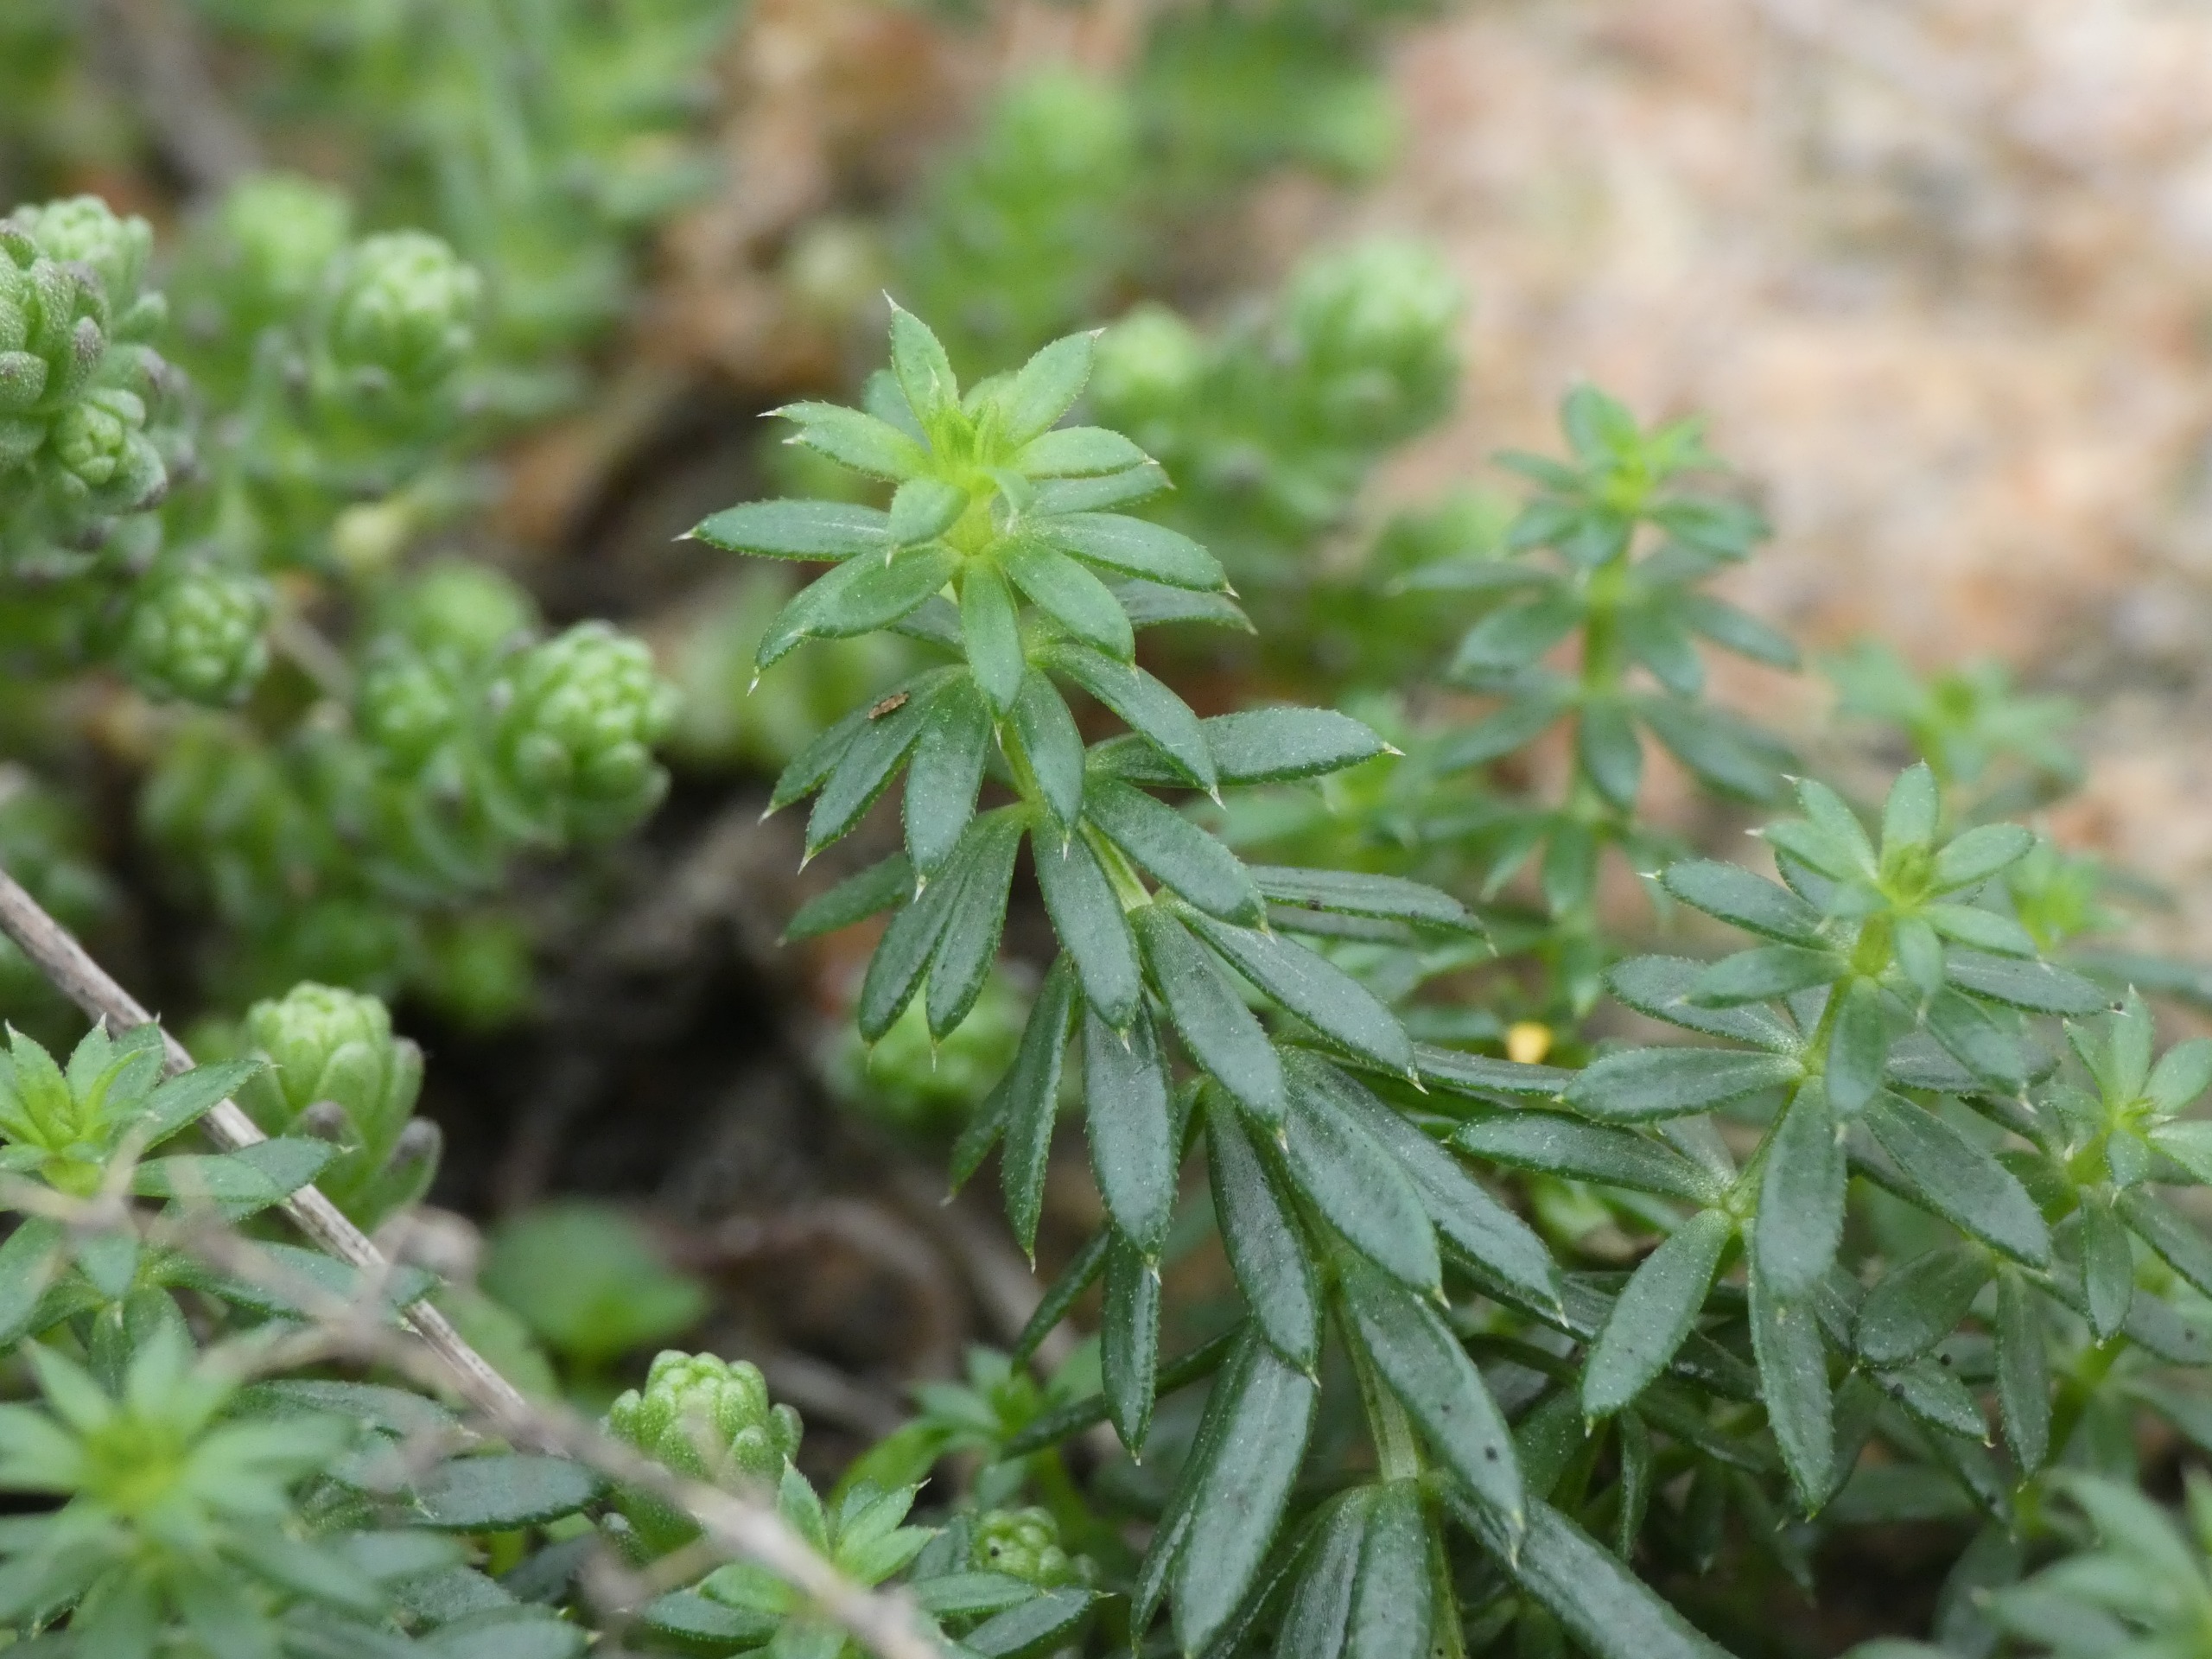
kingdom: Plantae
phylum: Tracheophyta
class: Magnoliopsida
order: Gentianales
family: Rubiaceae
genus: Galium
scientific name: Galium mollugo
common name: Hvid snerre
